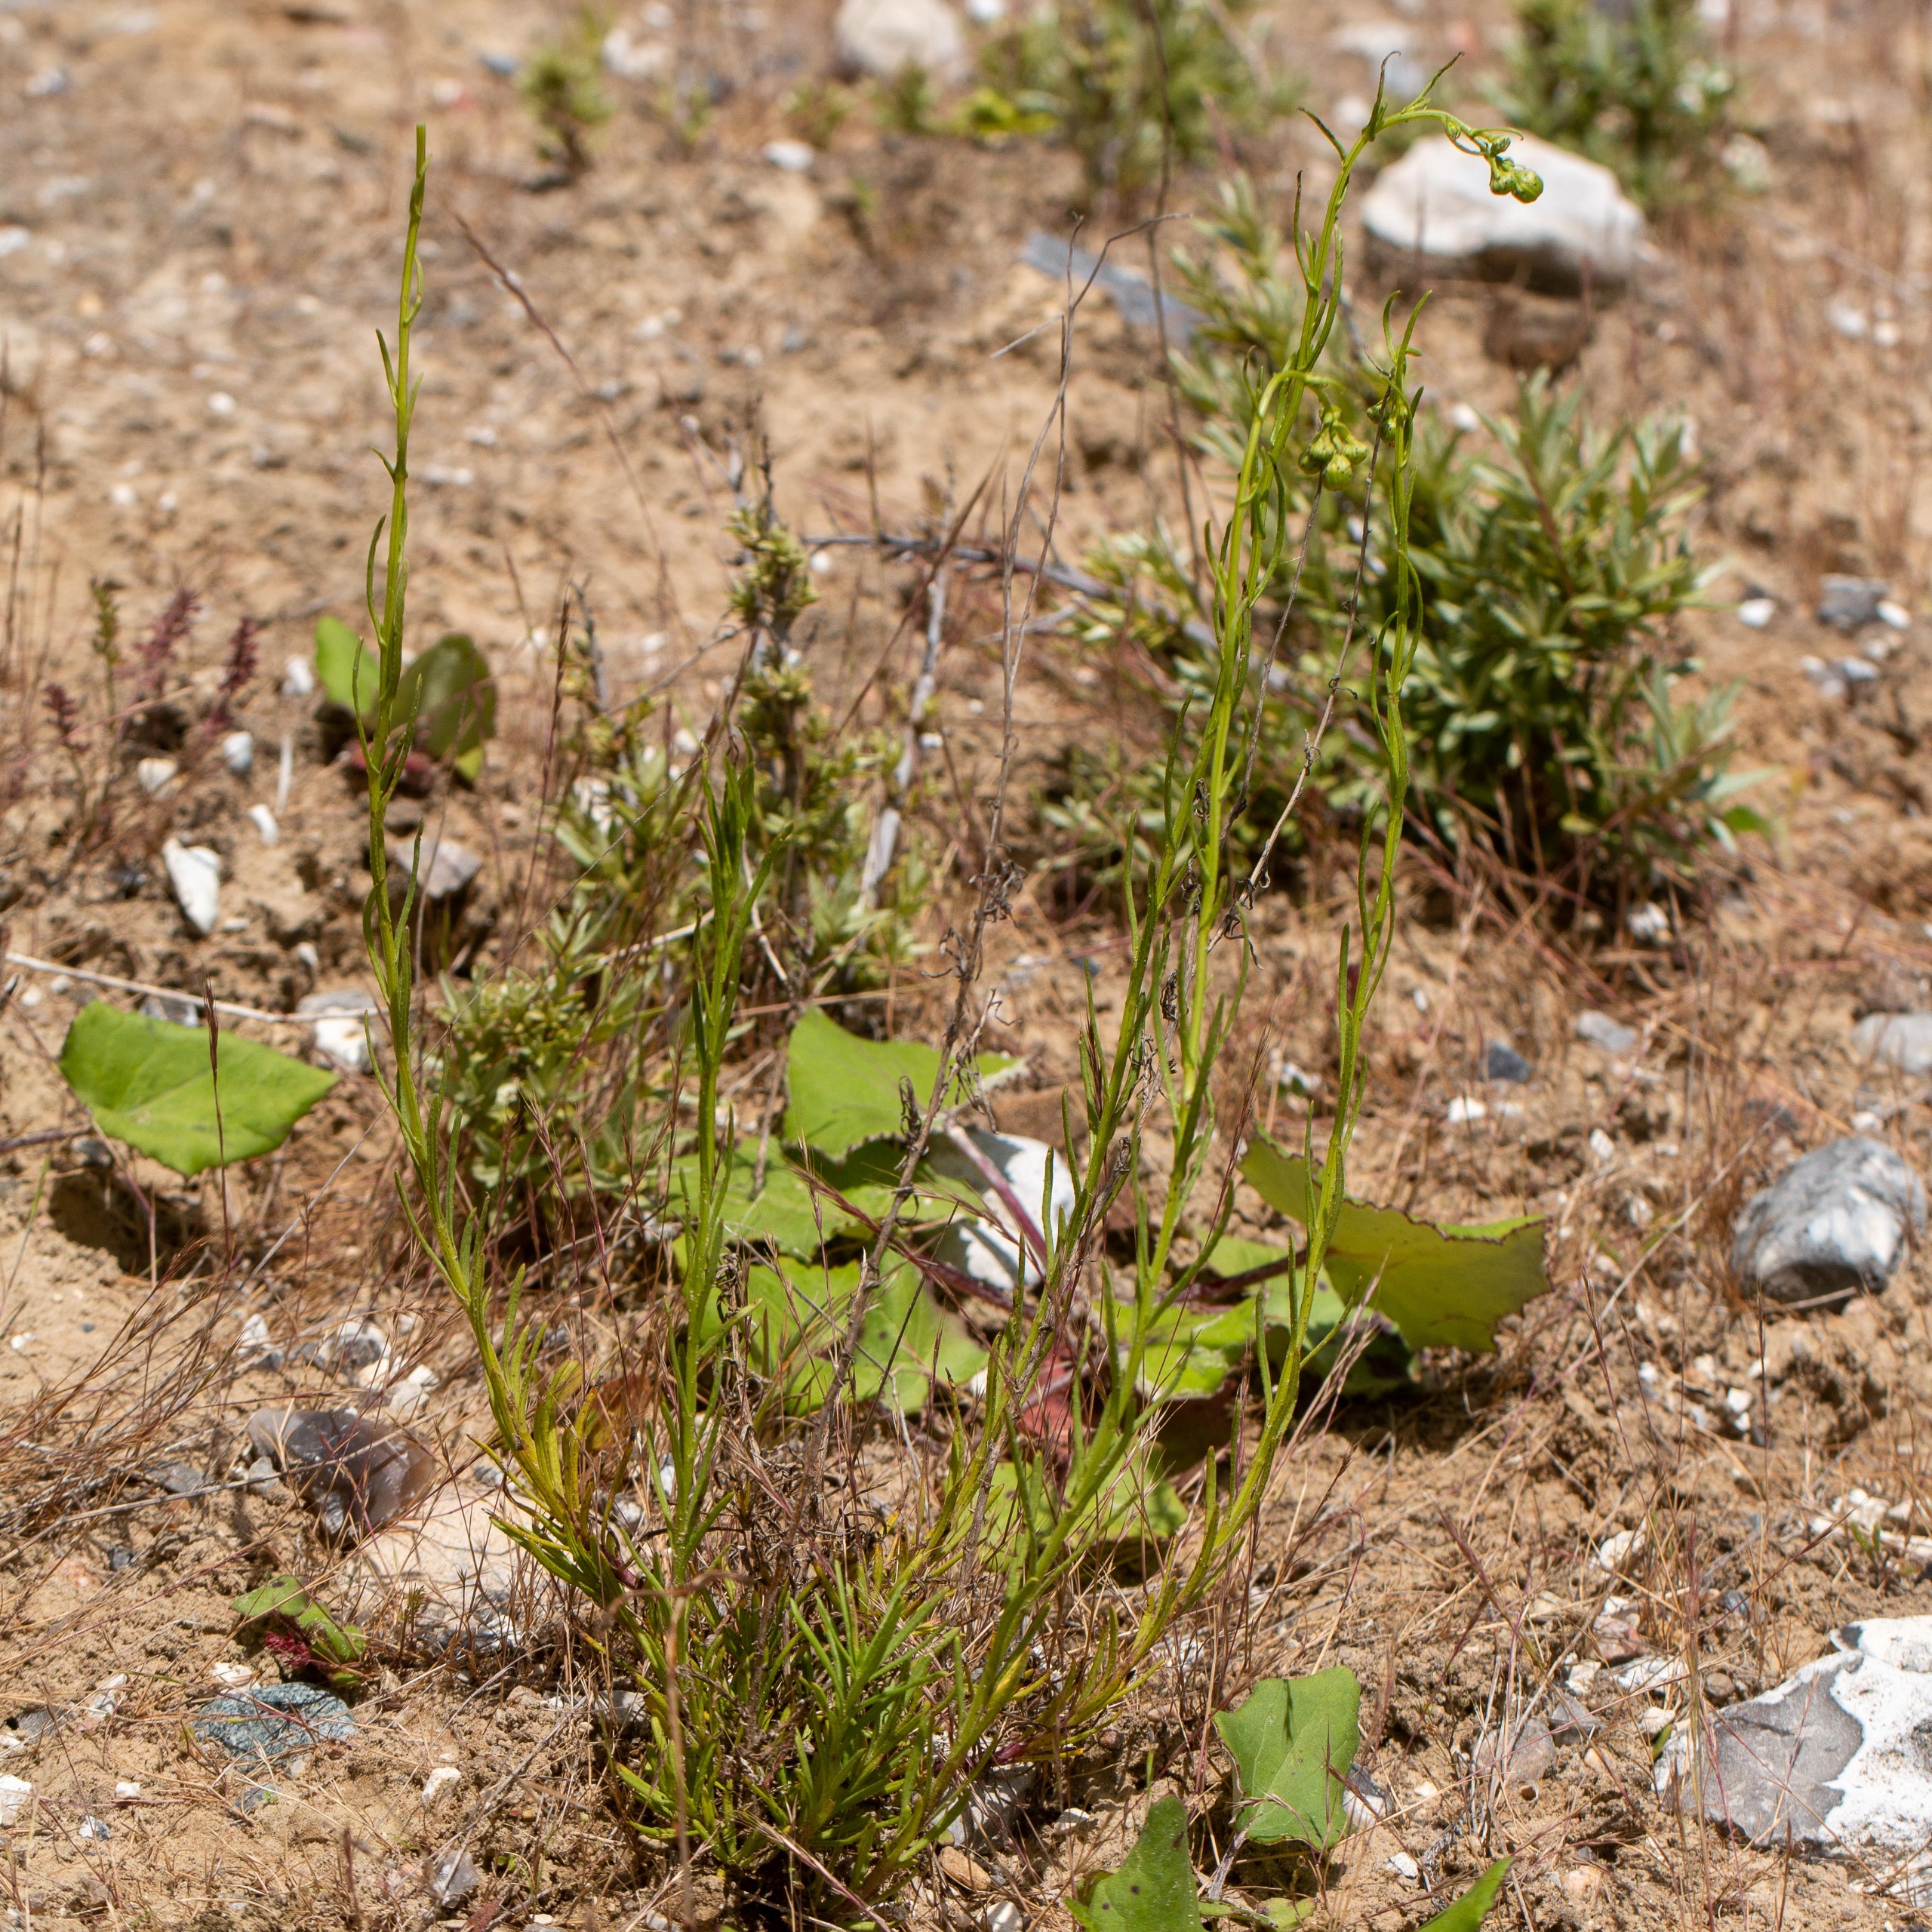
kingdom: Plantae
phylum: Tracheophyta
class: Magnoliopsida
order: Asterales
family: Asteraceae
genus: Senecio
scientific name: Senecio inaequidens
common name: Smalbladet brandbæger
